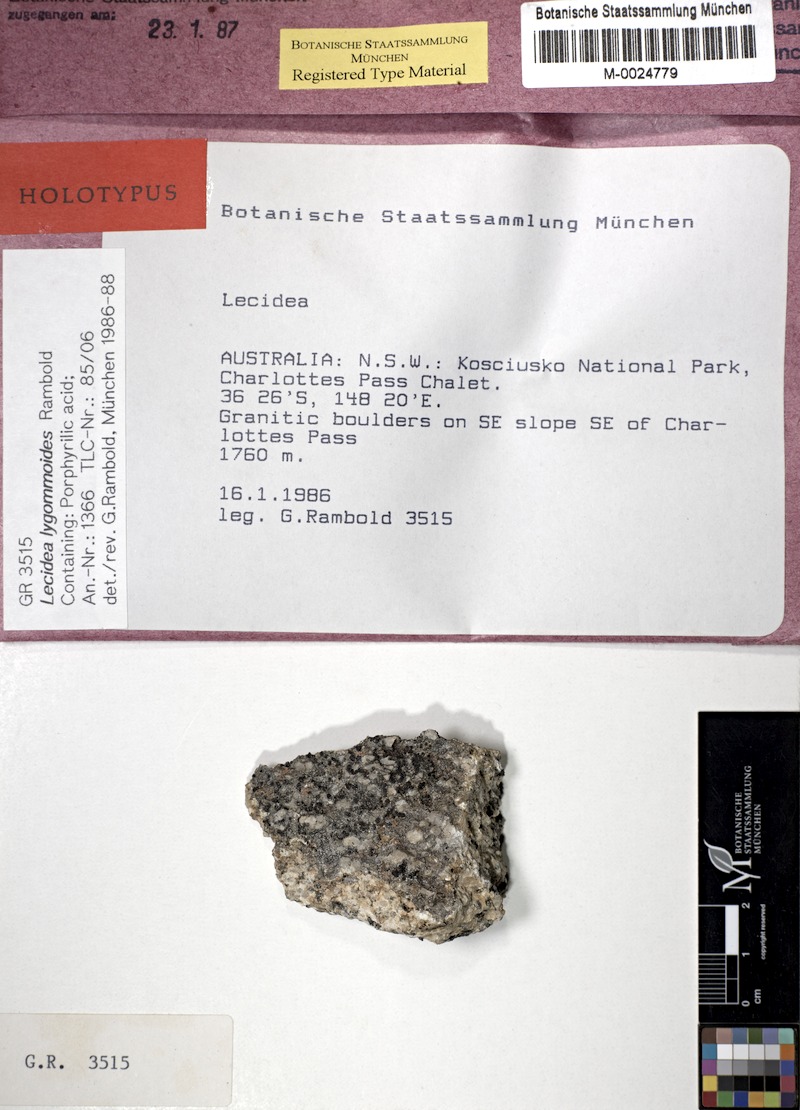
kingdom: Fungi
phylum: Ascomycota
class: Lecanoromycetes
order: Lecideales
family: Lecideaceae
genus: Lecidea
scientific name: Lecidea lygommoides
